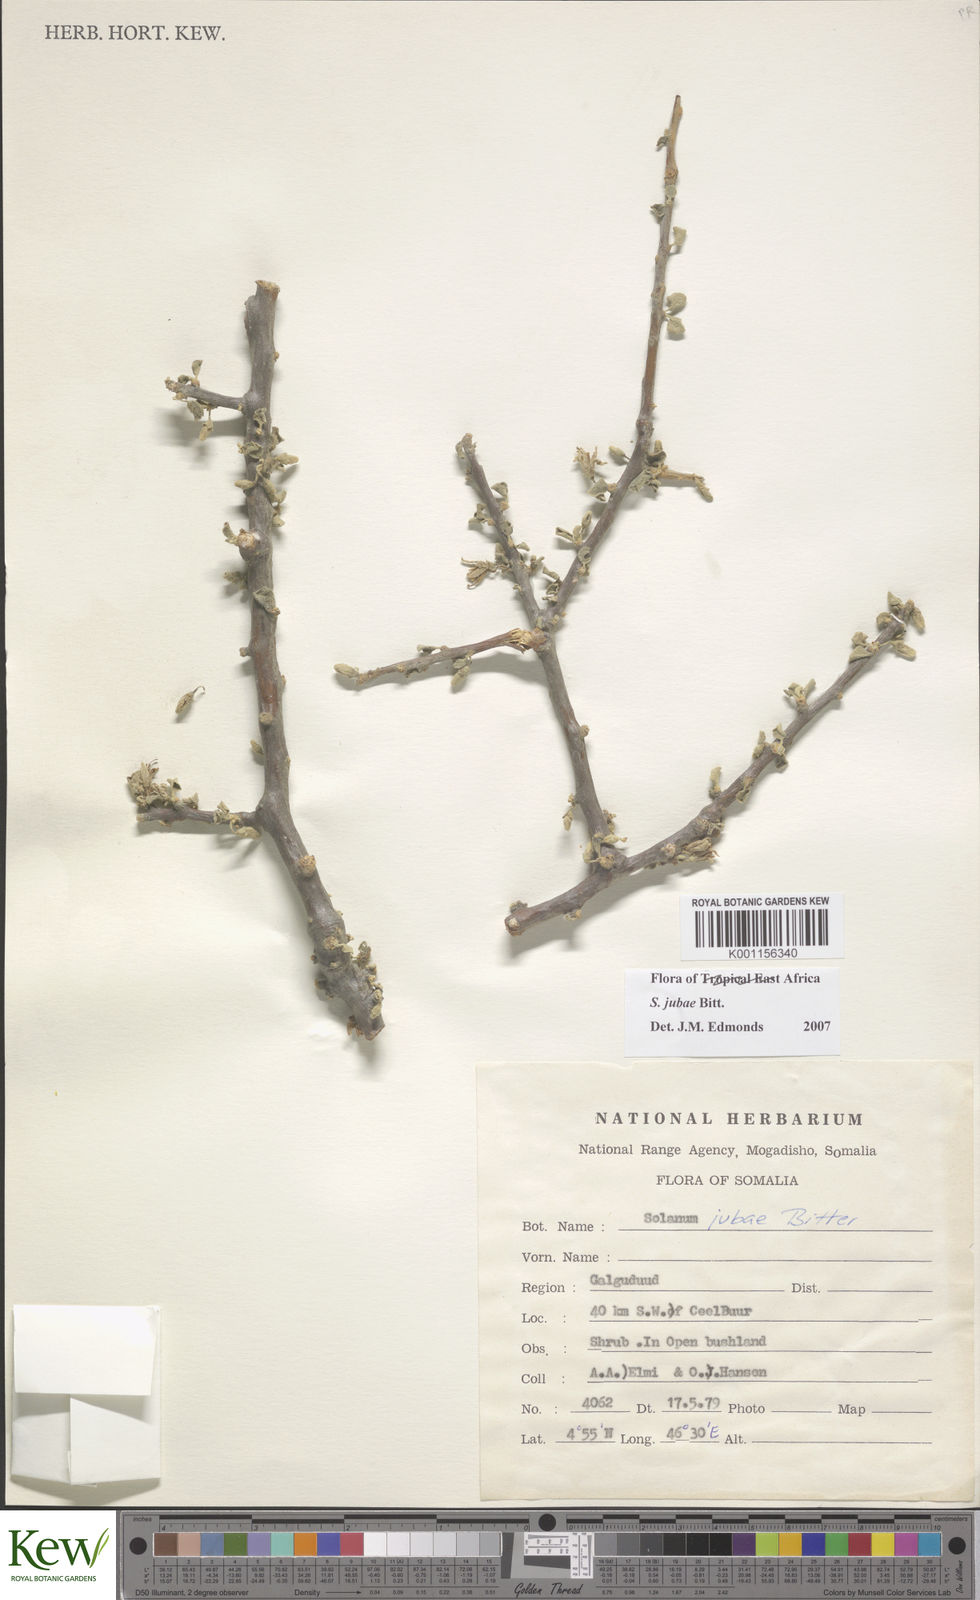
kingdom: Plantae
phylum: Tracheophyta
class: Magnoliopsida
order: Solanales
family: Solanaceae
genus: Solanum
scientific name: Solanum jubae
